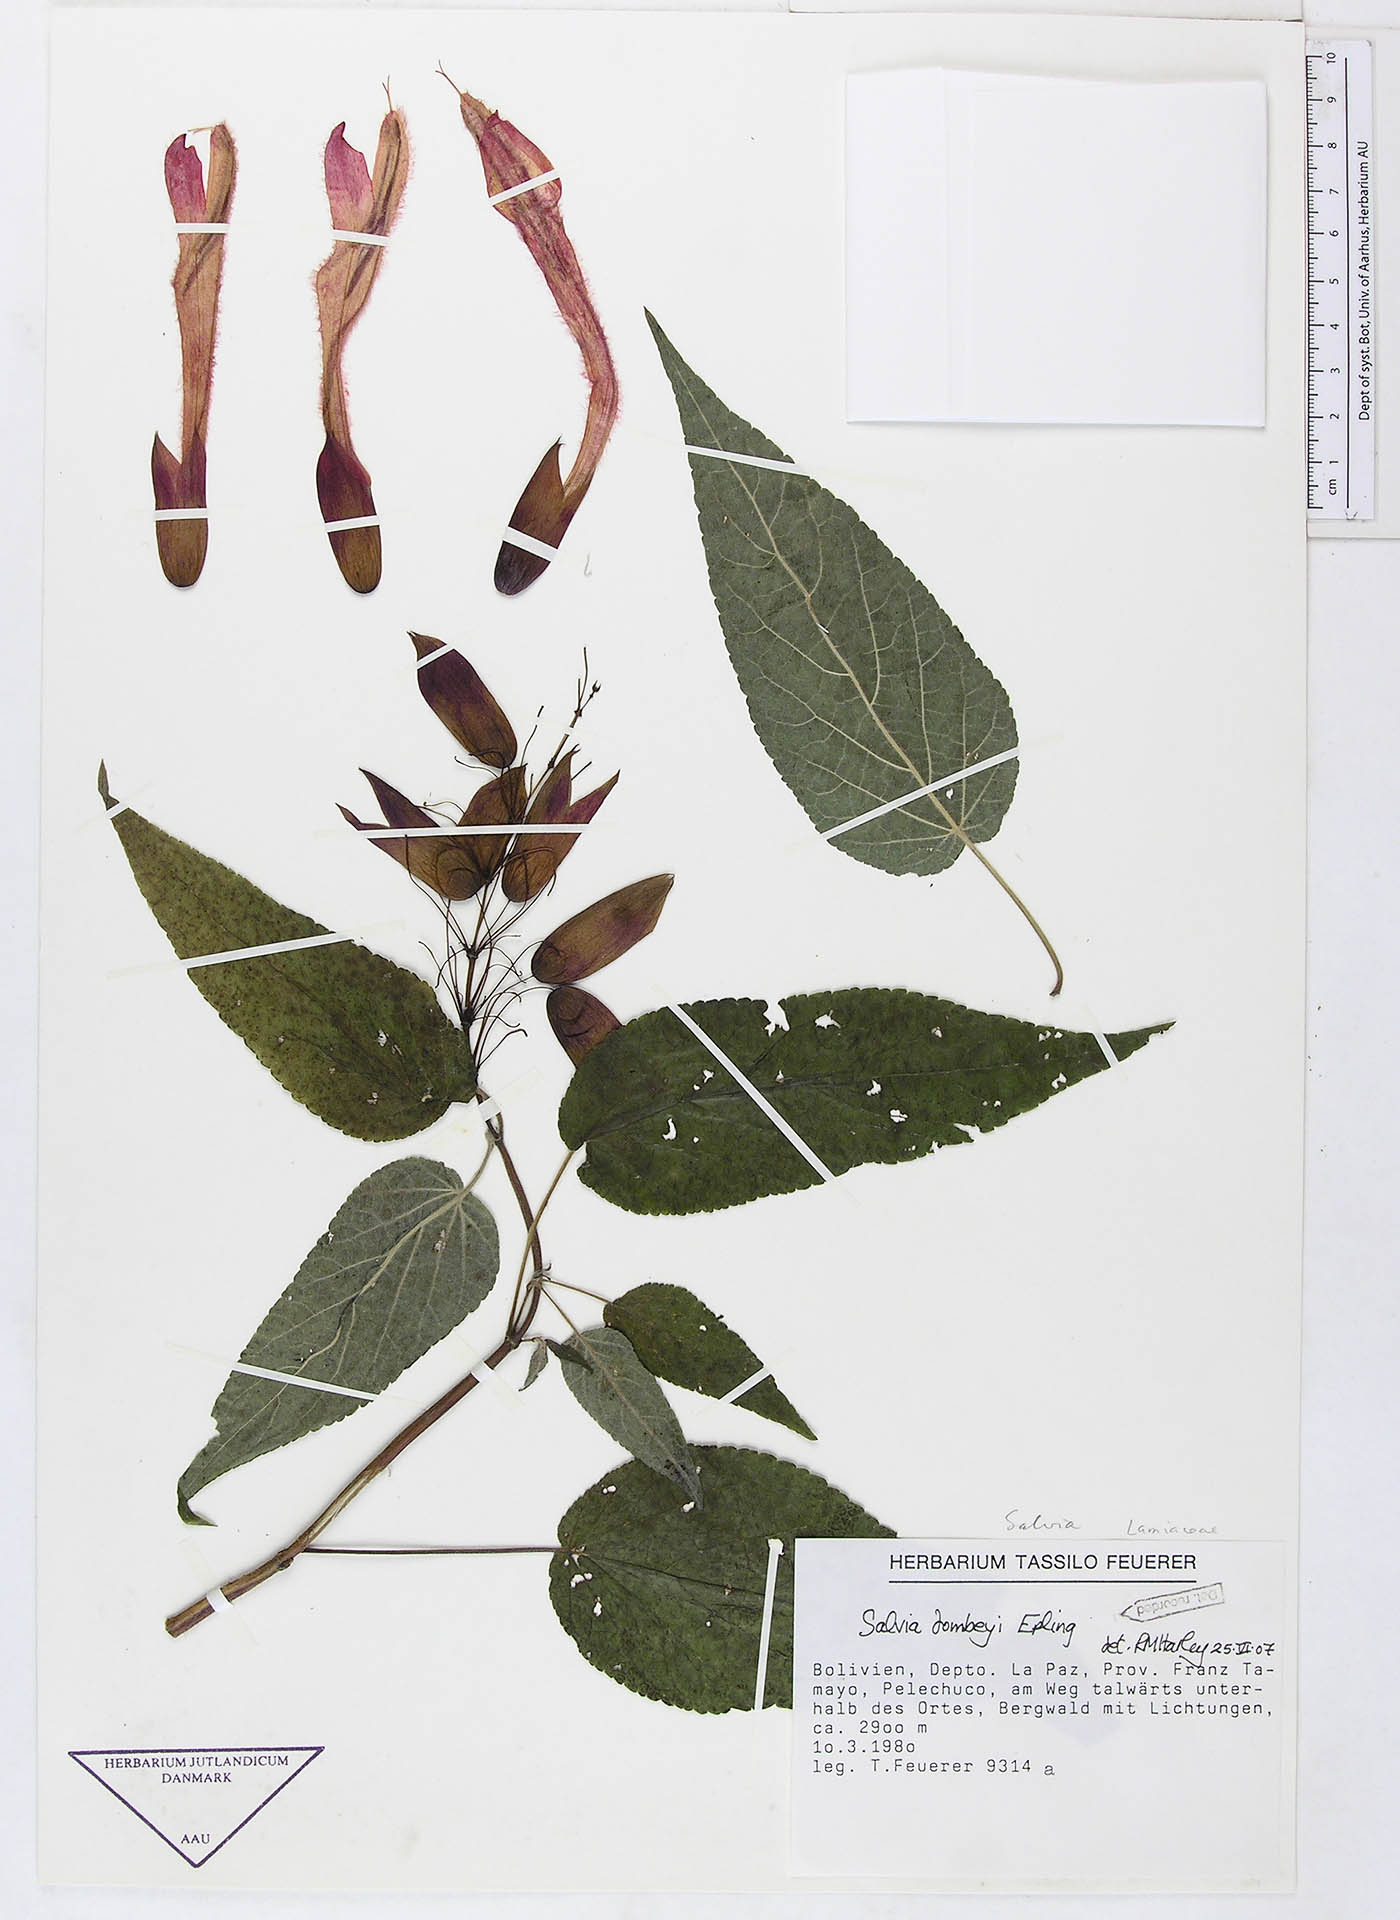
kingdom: Plantae
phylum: Tracheophyta
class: Magnoliopsida
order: Lamiales
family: Lamiaceae
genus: Salvia
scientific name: Salvia dombeyi
